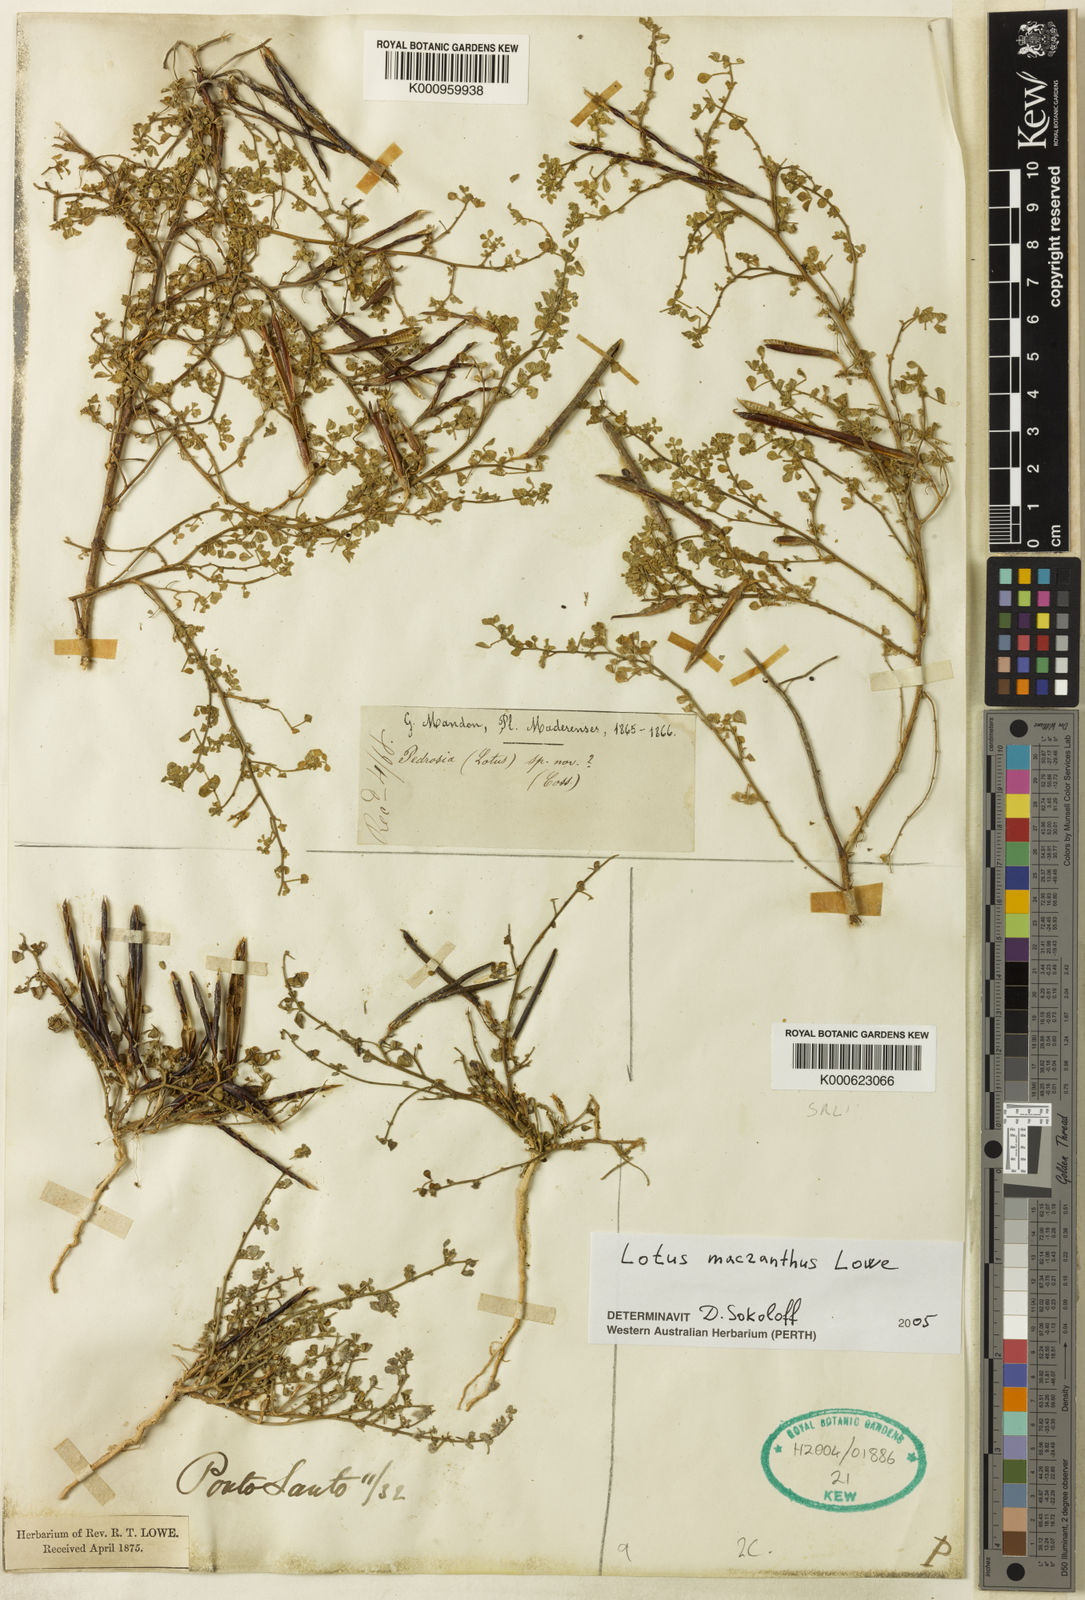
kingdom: Plantae
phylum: Tracheophyta
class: Magnoliopsida
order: Fabales
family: Fabaceae
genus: Lotus
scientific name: Lotus macranthus
